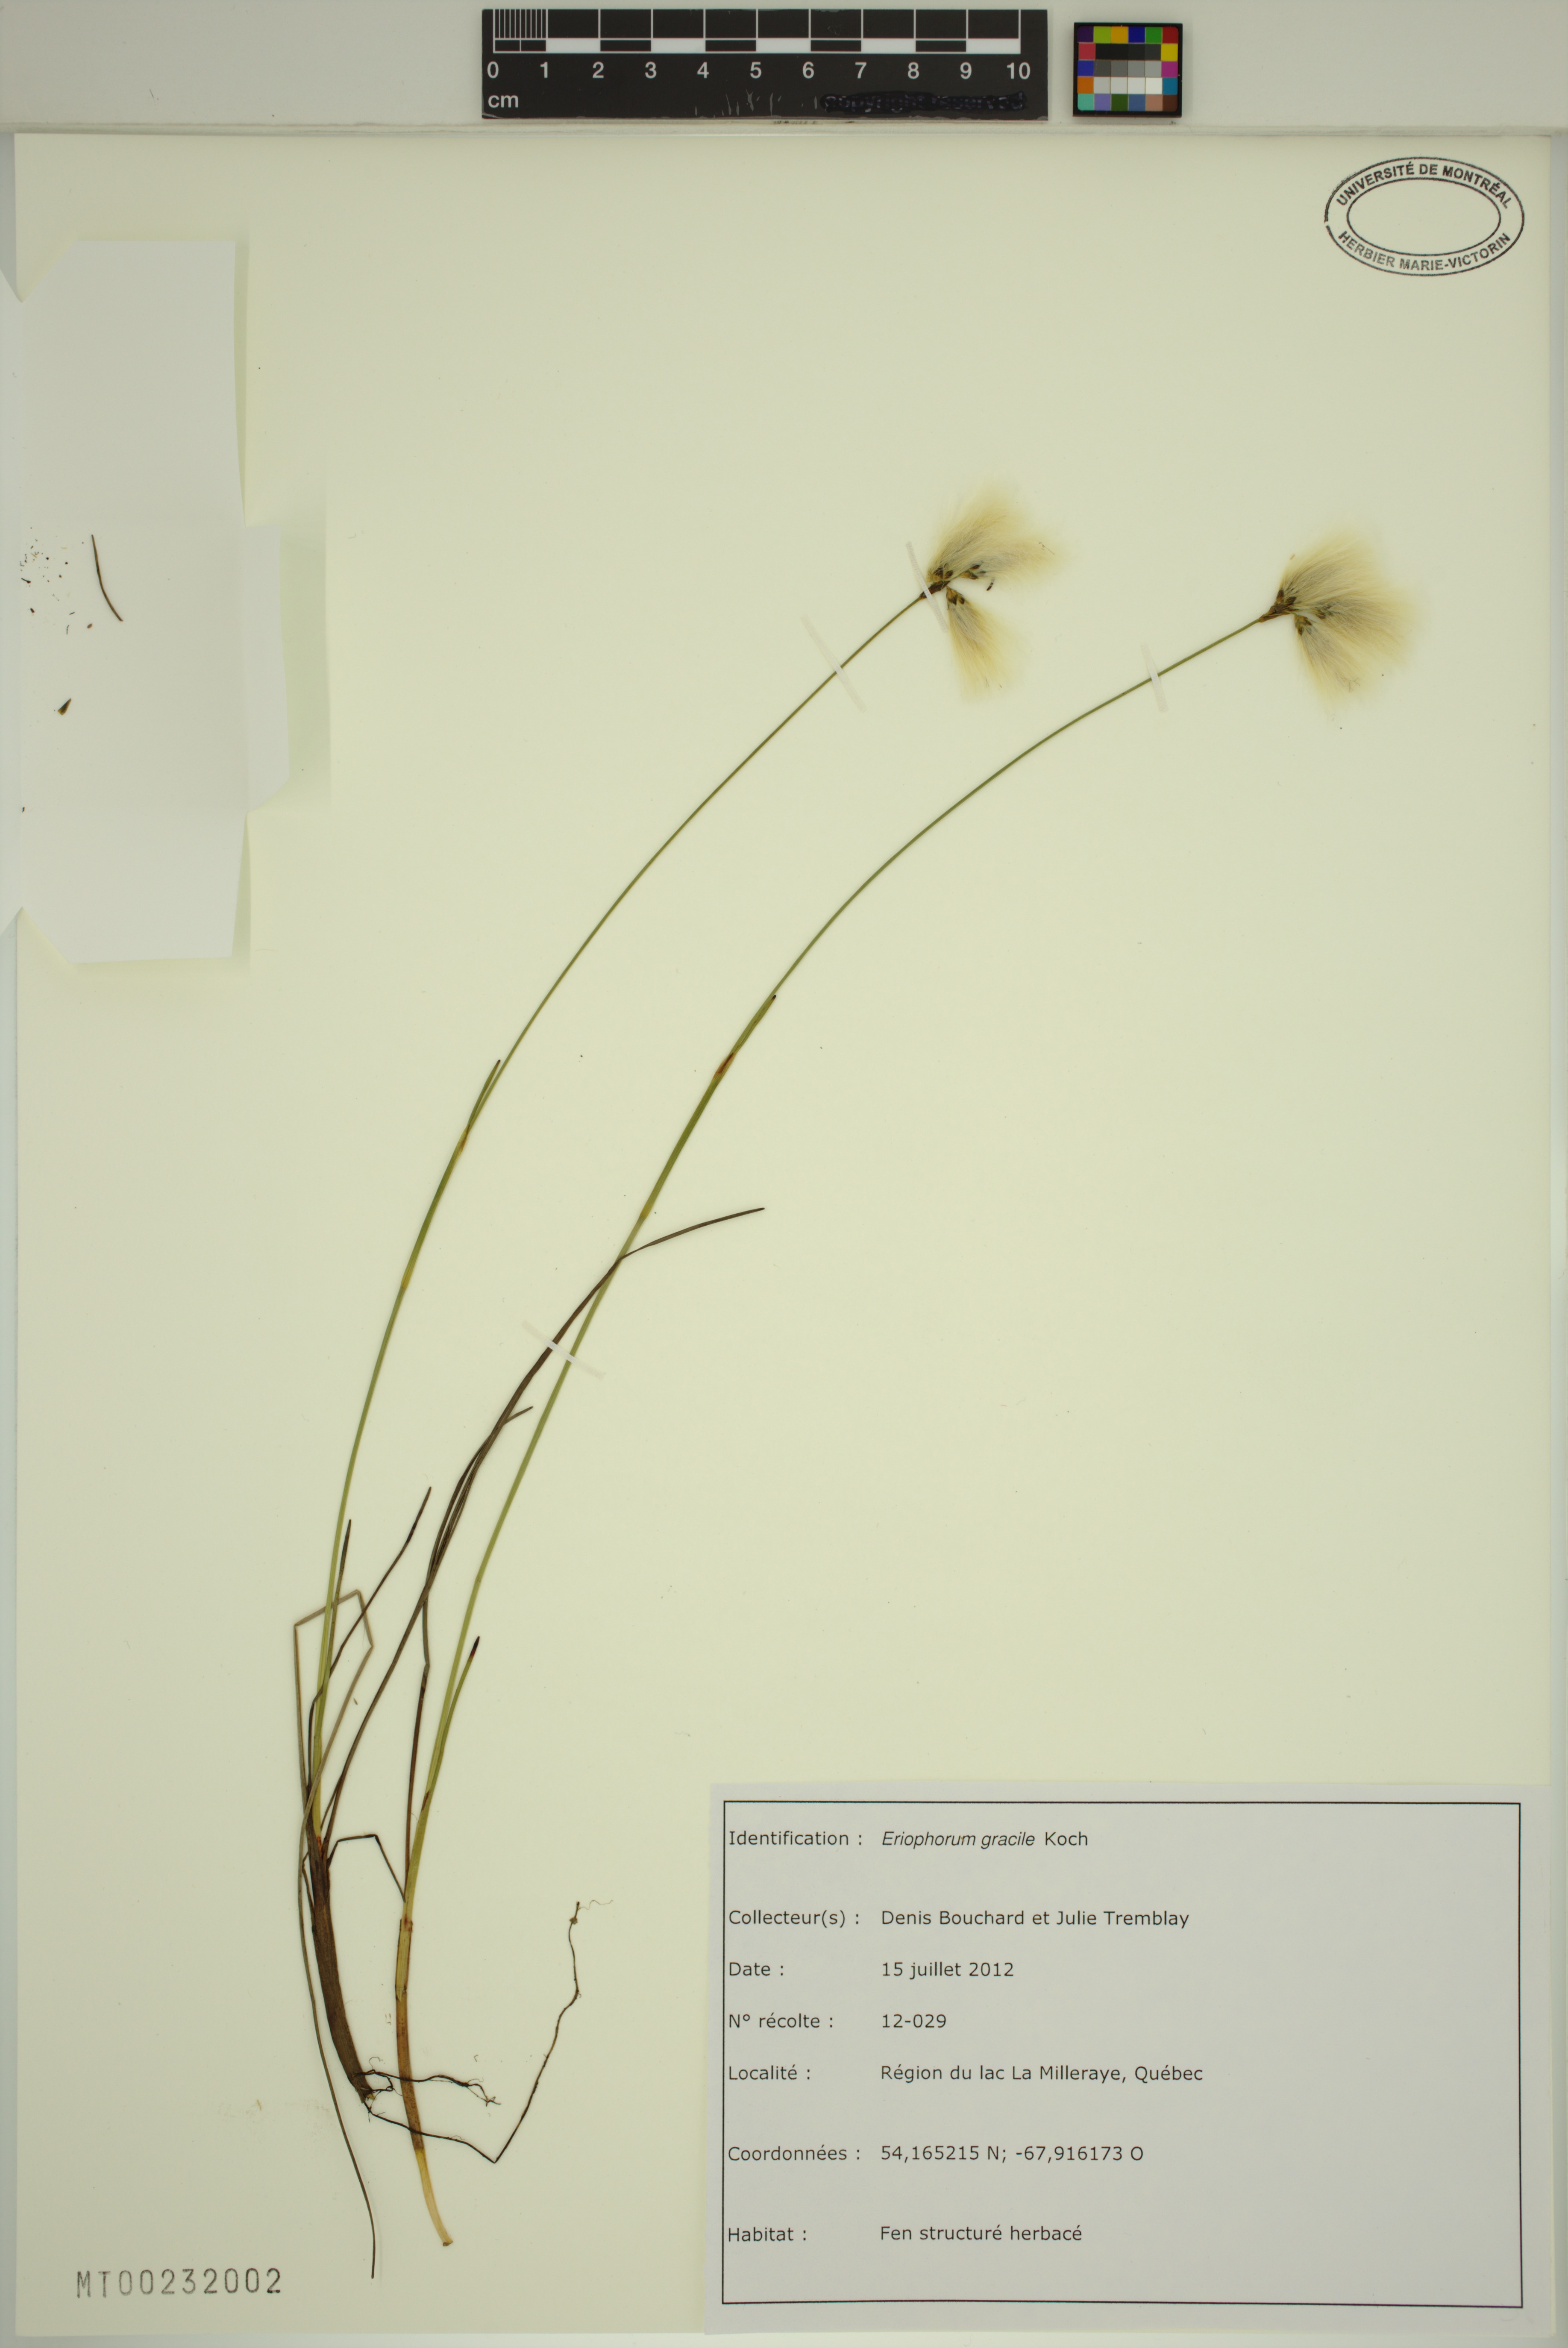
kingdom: Plantae
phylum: Tracheophyta
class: Liliopsida
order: Poales
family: Cyperaceae
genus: Eriophorum
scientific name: Eriophorum gracile
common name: Slender cottongrass
